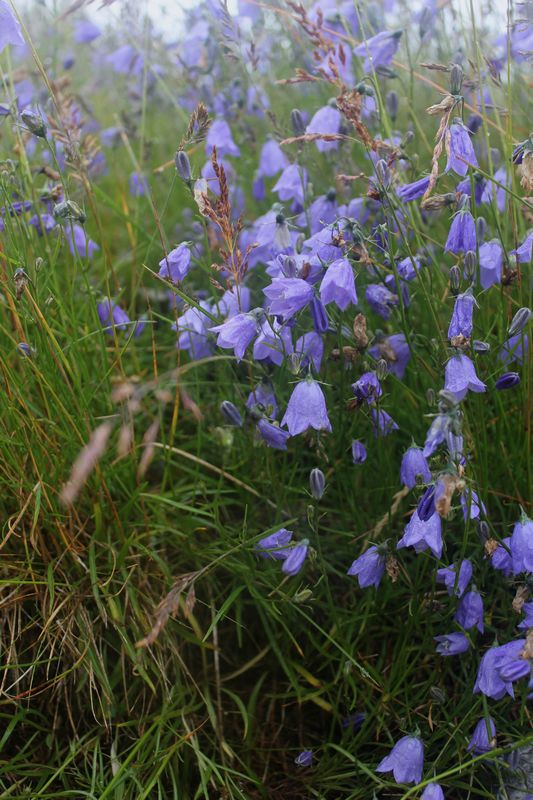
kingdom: Plantae
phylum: Tracheophyta
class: Magnoliopsida
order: Asterales
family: Campanulaceae
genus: Campanula
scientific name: Campanula rotundifolia
